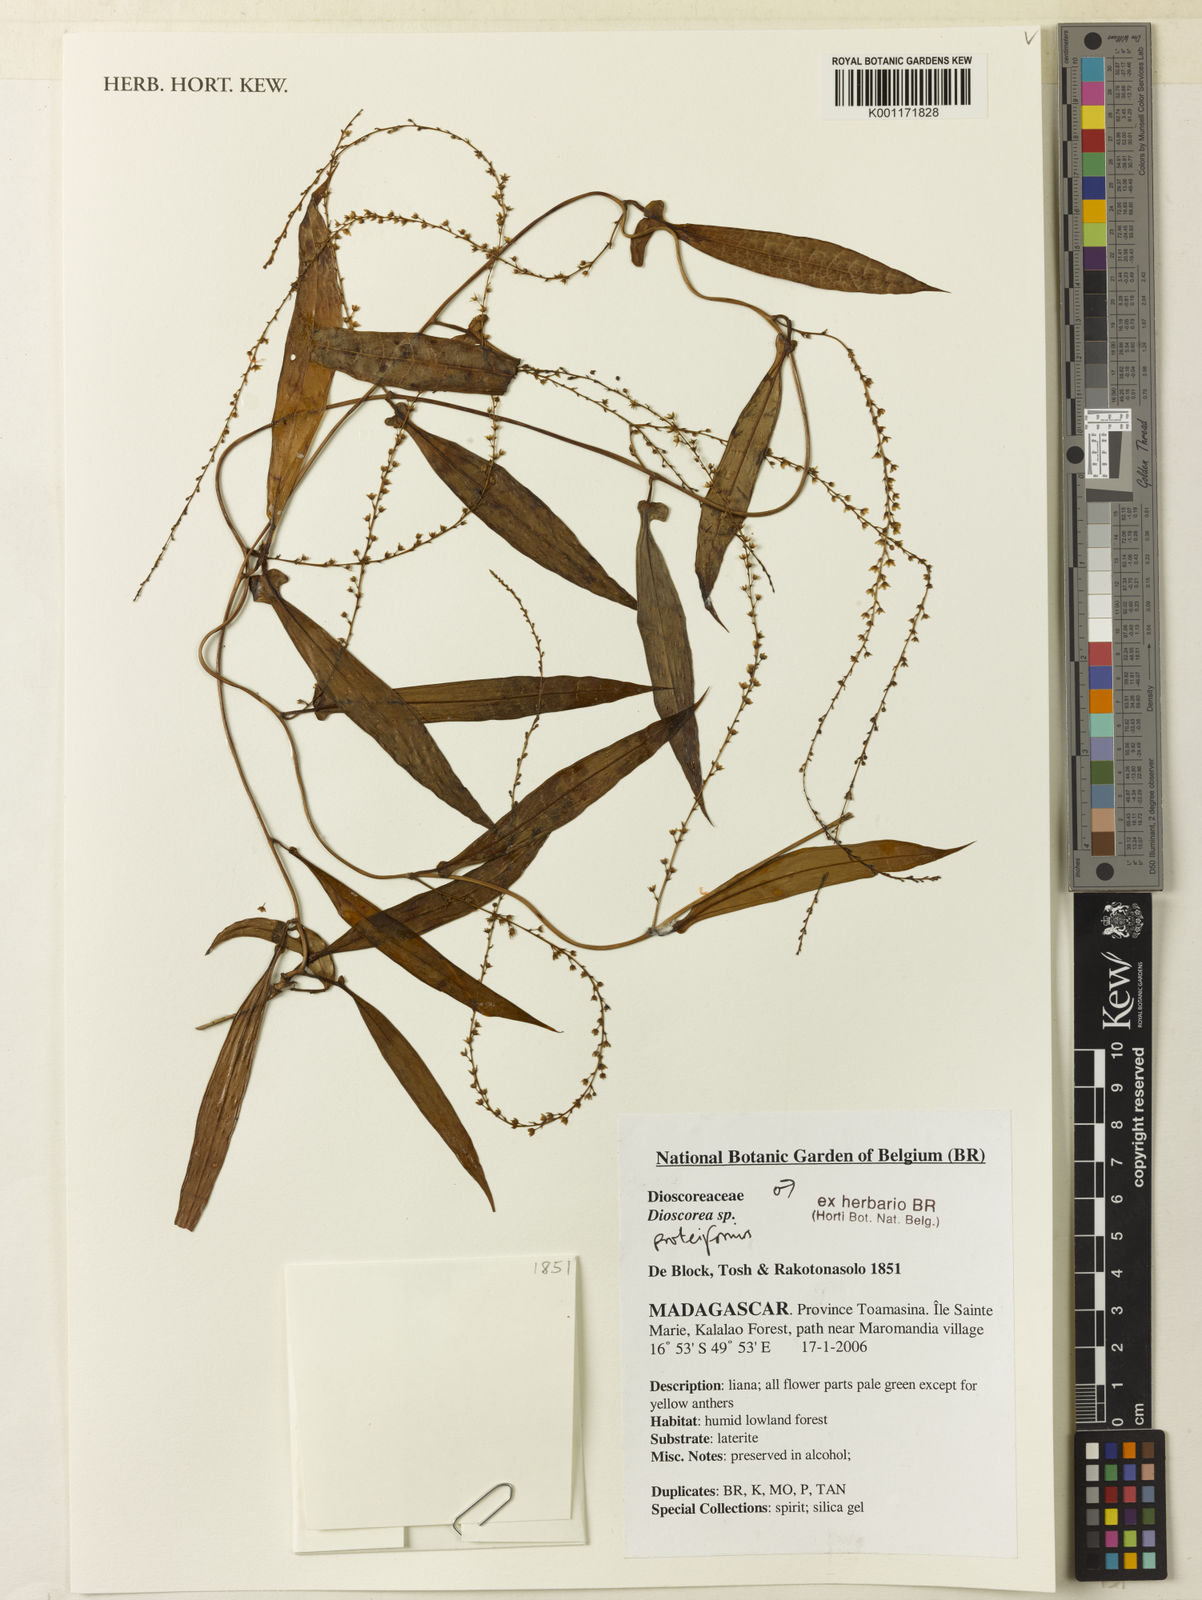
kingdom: Plantae
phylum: Tracheophyta
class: Liliopsida
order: Dioscoreales
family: Dioscoreaceae
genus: Dioscorea
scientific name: Dioscorea proteiformis
